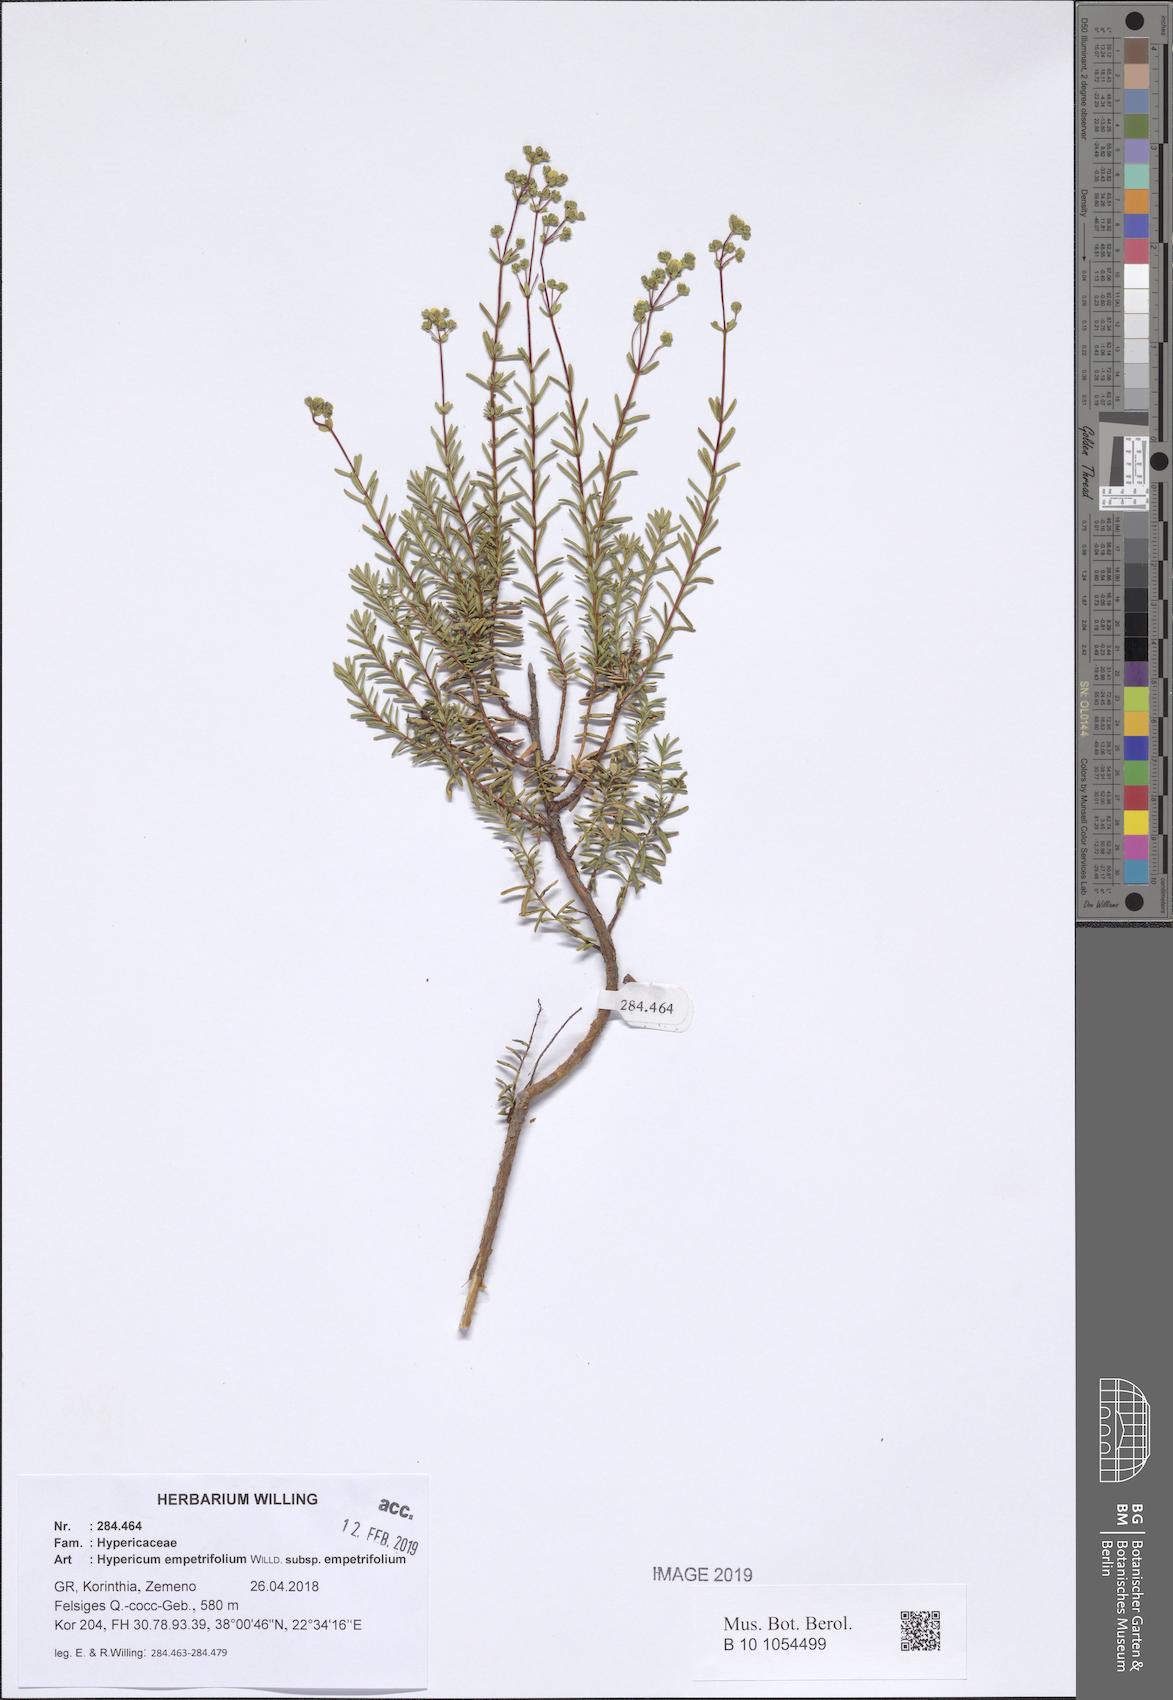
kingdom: Plantae
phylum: Tracheophyta
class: Magnoliopsida
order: Malpighiales
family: Hypericaceae
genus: Hypericum
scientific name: Hypericum empetrifolium
